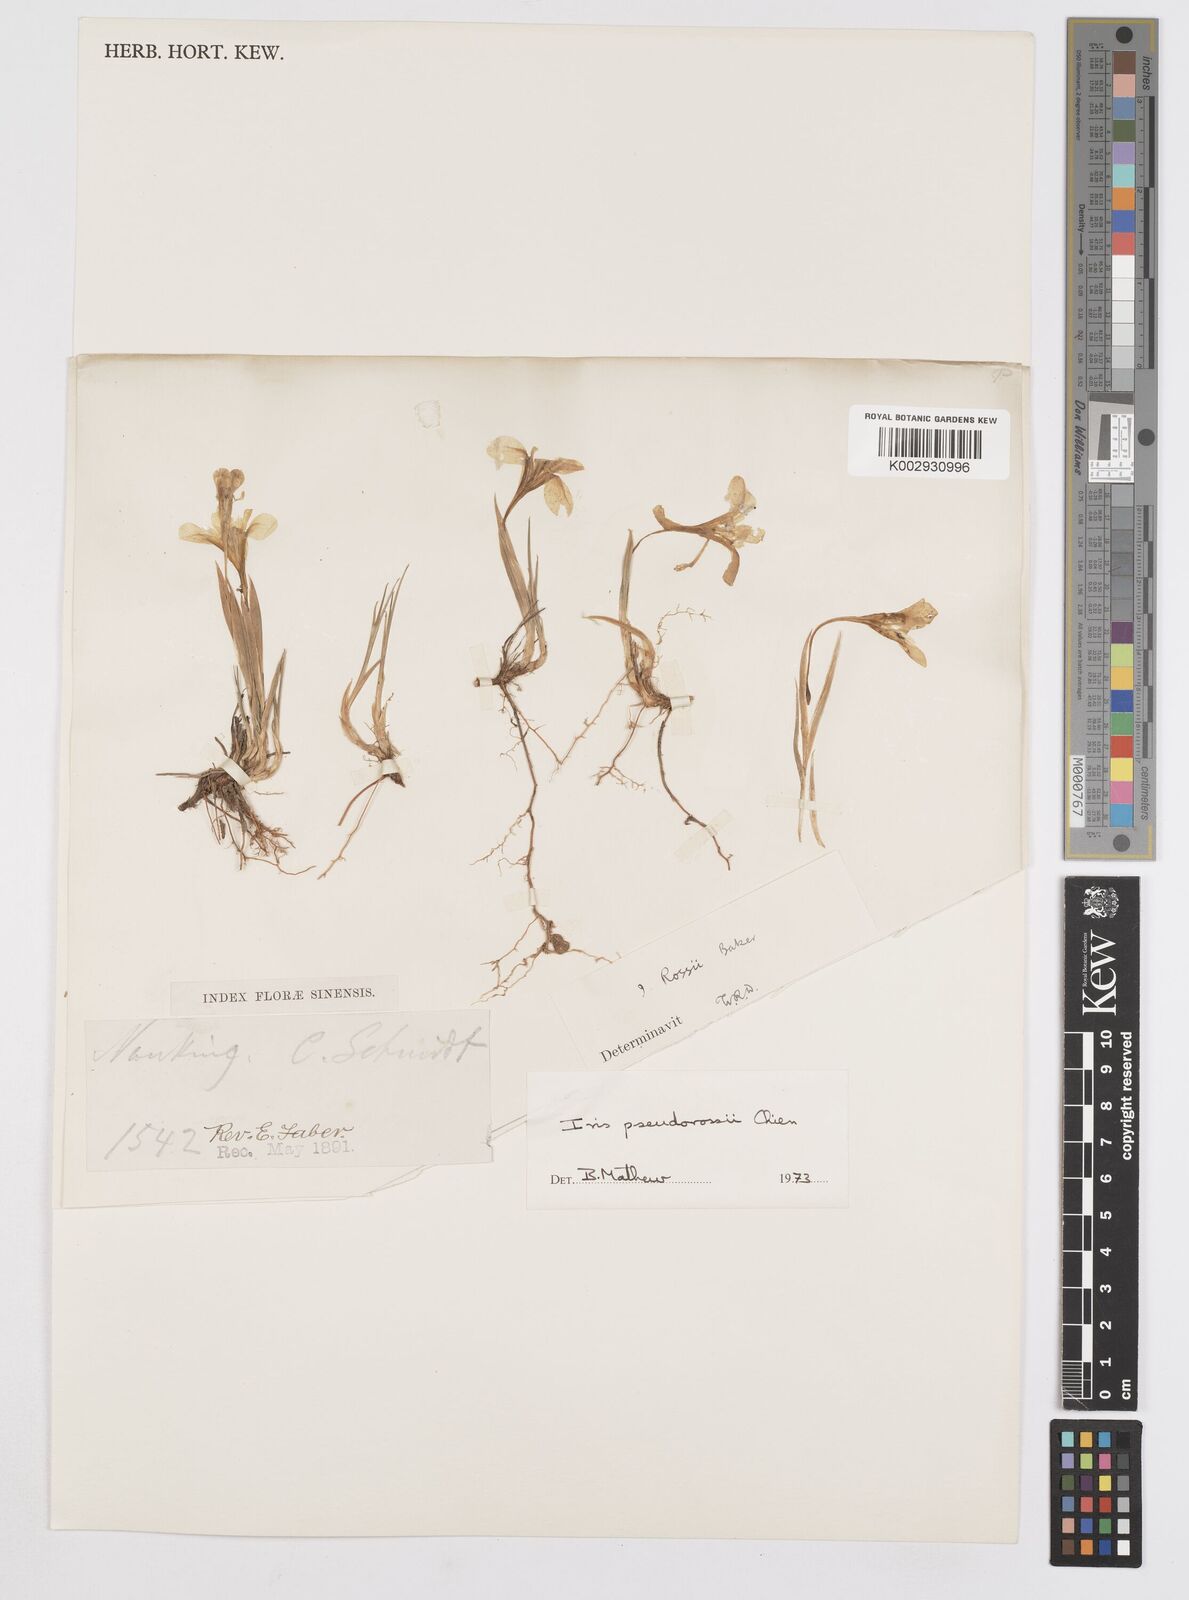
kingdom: Plantae
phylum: Tracheophyta
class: Liliopsida
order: Asparagales
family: Iridaceae
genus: Iris
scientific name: Iris proantha
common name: Small iris
